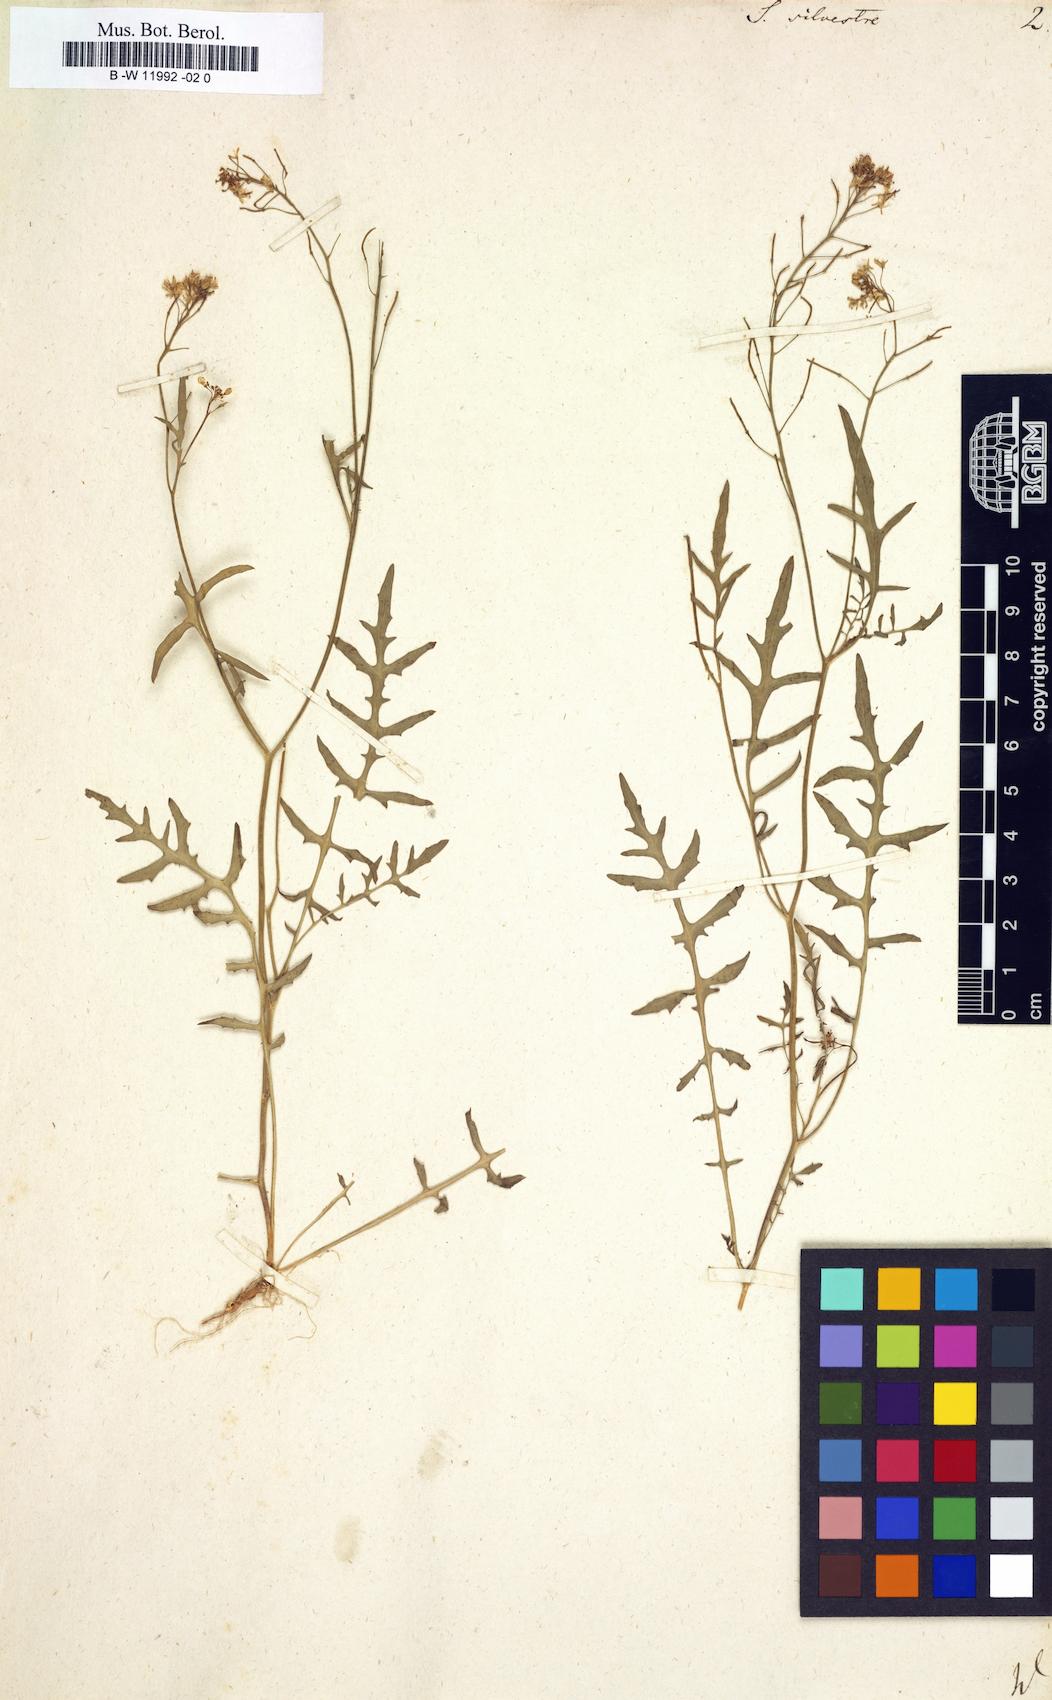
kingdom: Plantae
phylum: Tracheophyta
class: Magnoliopsida
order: Brassicales
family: Brassicaceae
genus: Rorippa
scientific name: Rorippa sylvestris
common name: Creeping yellowcress
